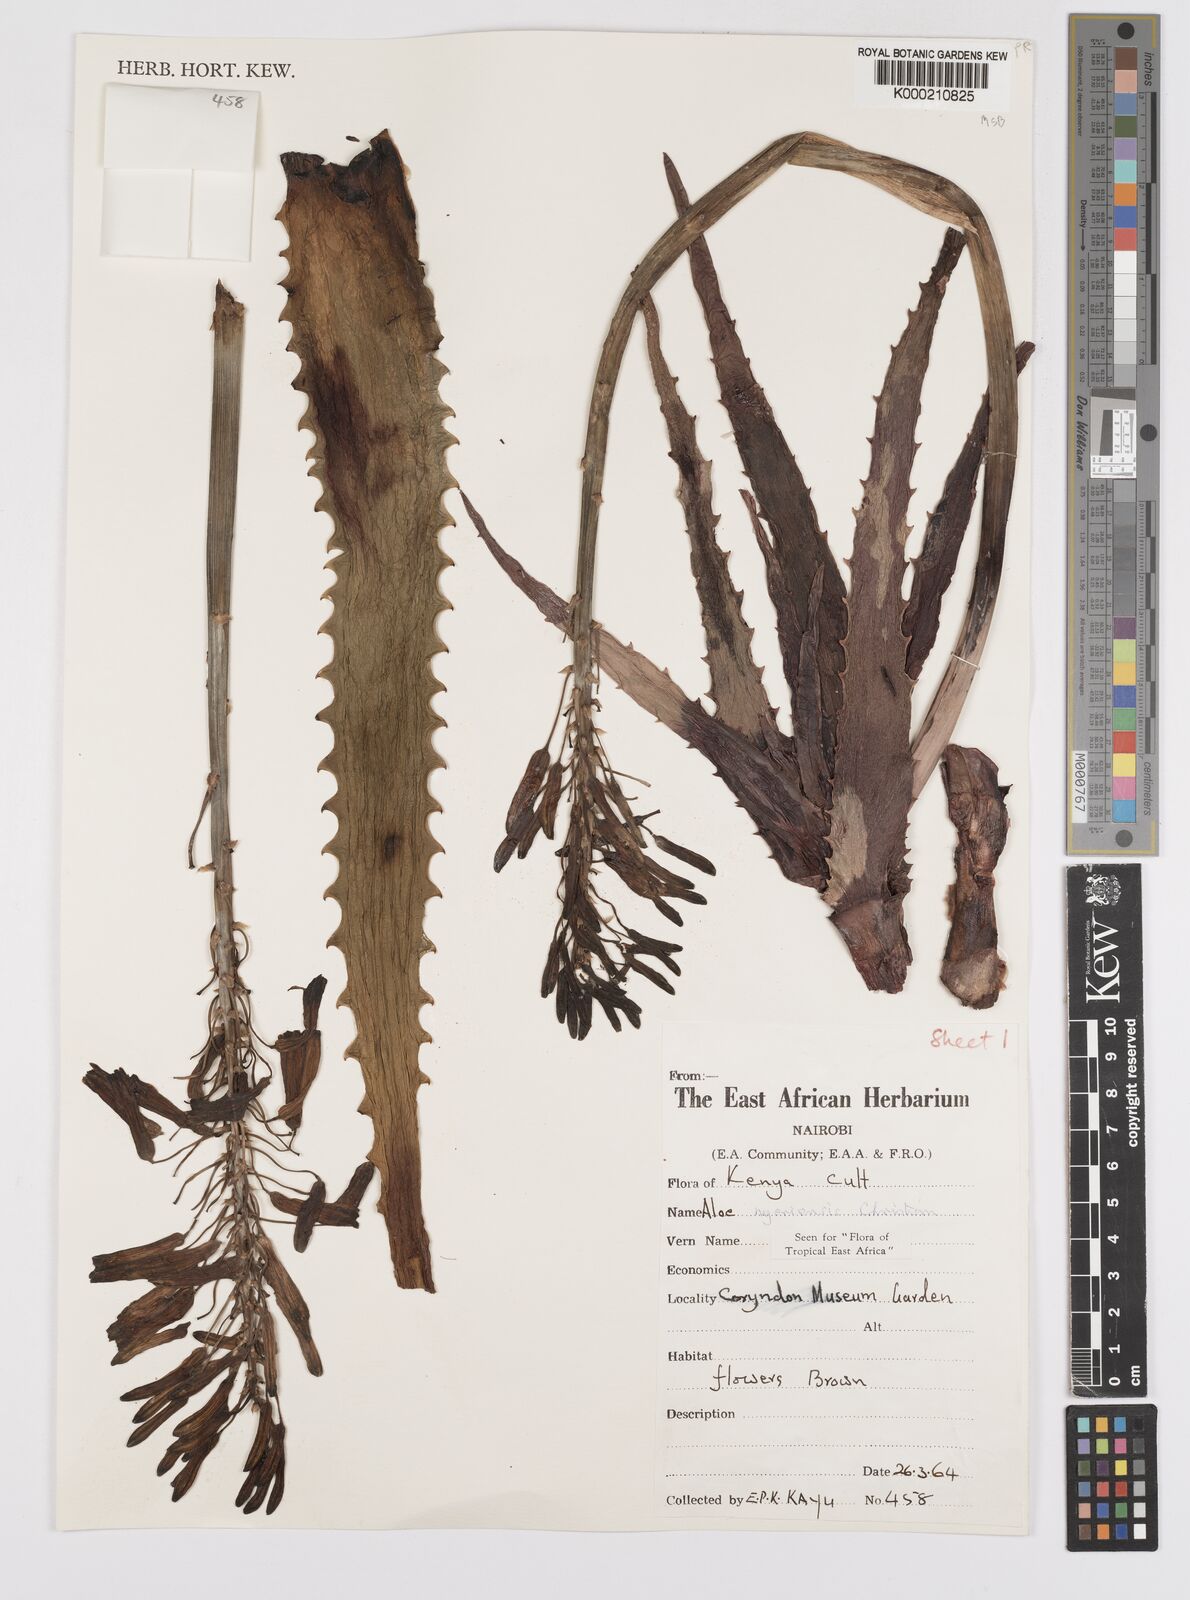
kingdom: Plantae
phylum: Tracheophyta
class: Liliopsida
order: Asparagales
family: Asphodelaceae
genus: Aloe
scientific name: Aloe nyeriensis
